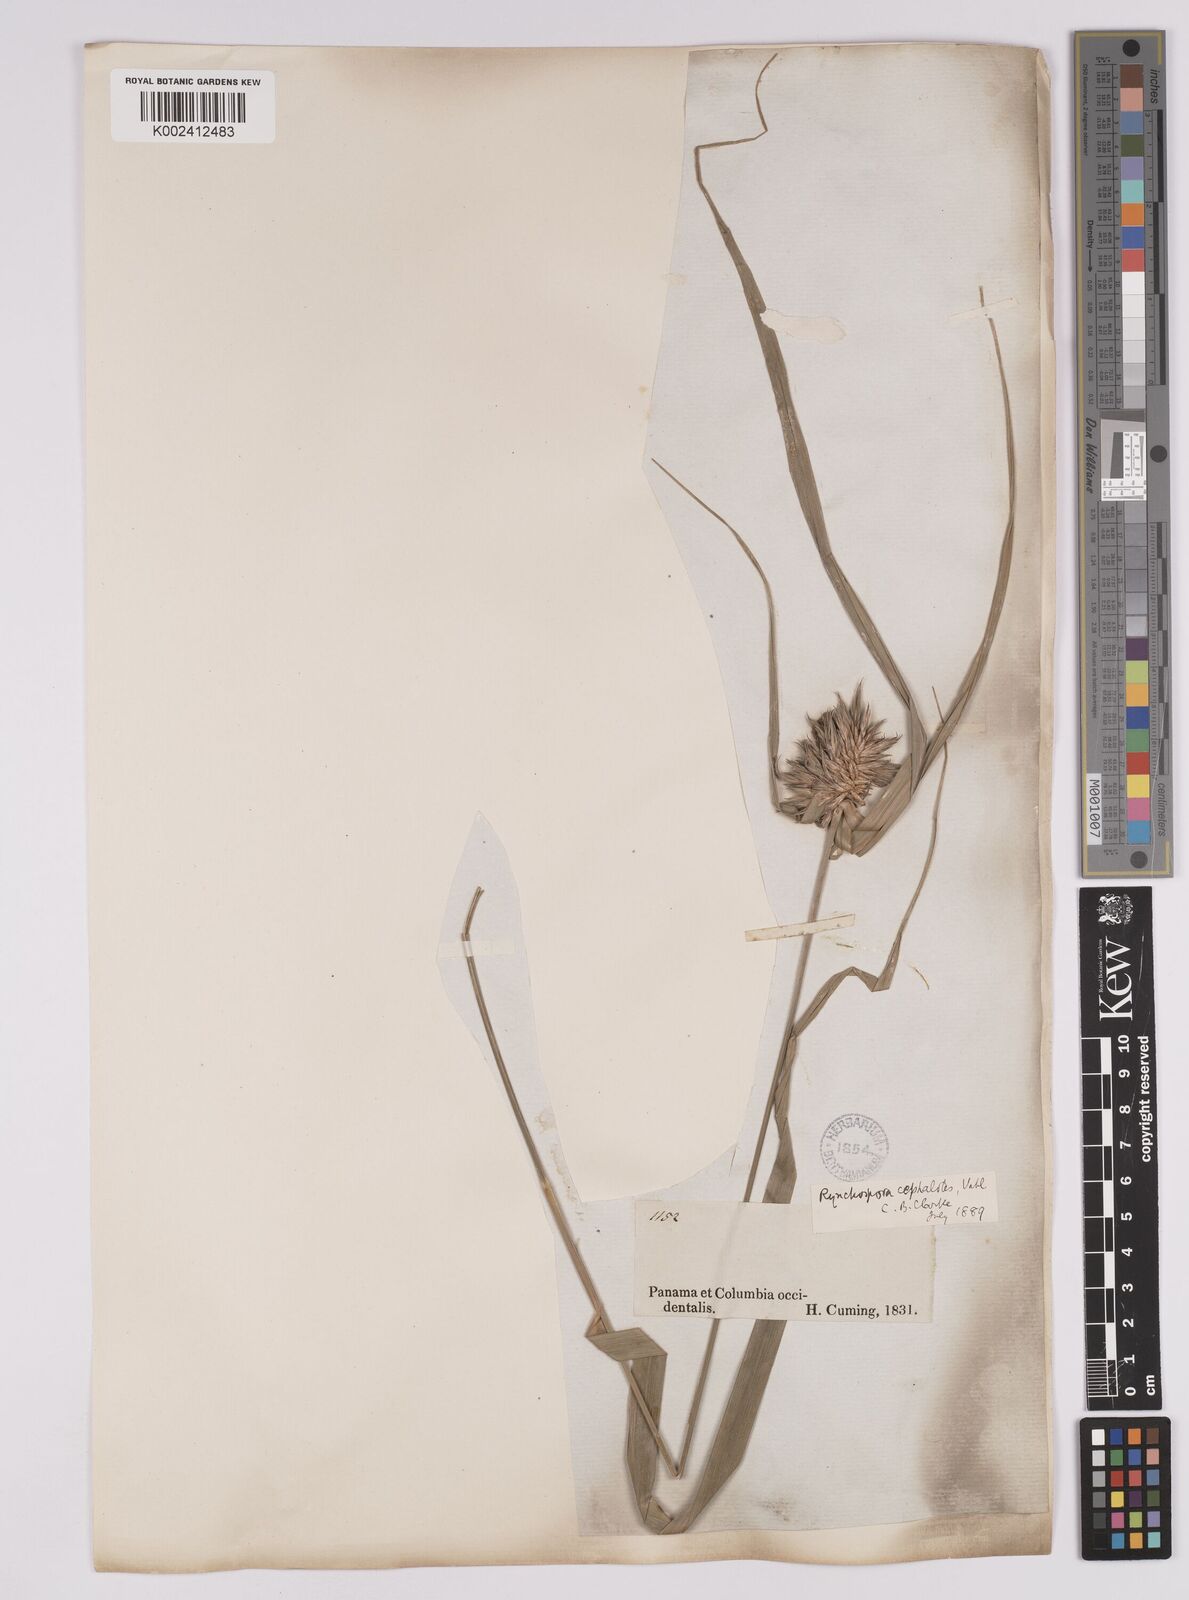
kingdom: Plantae
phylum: Tracheophyta
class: Liliopsida
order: Poales
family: Cyperaceae
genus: Rhynchospora
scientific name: Rhynchospora cephalotes
